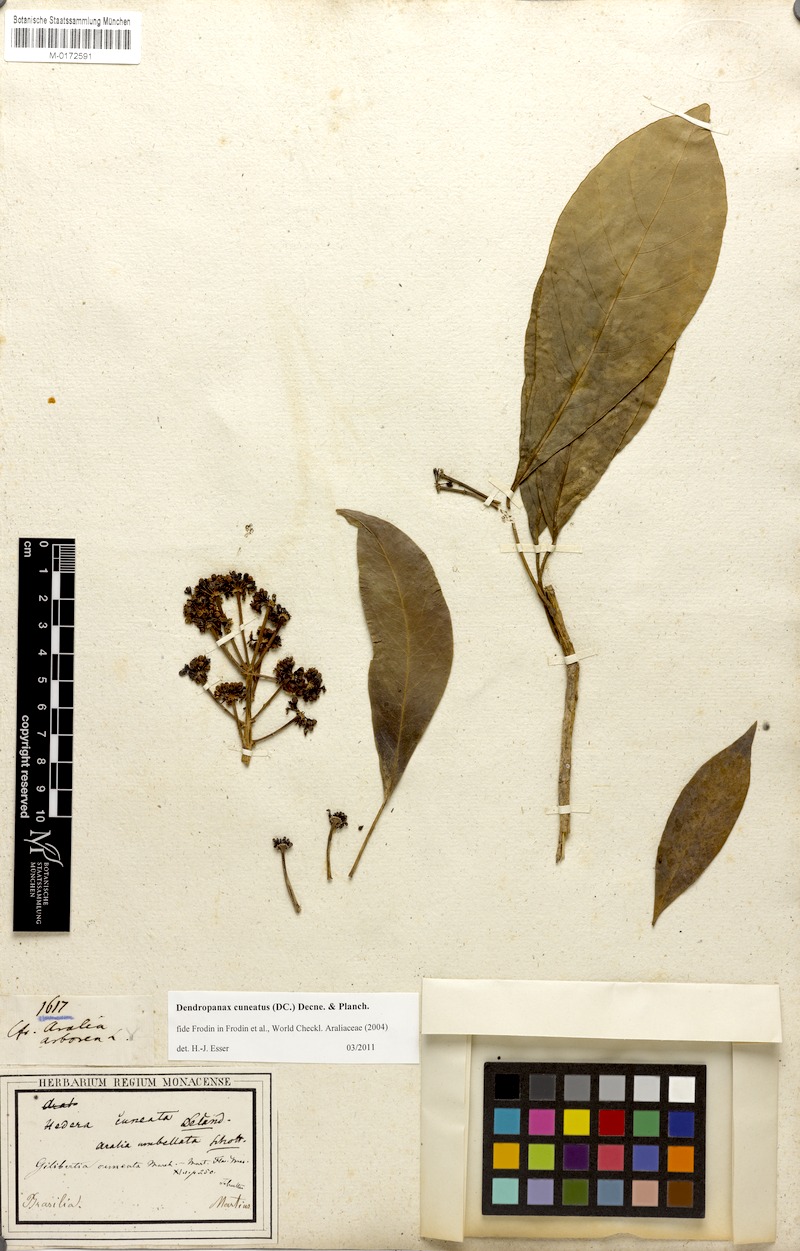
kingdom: Plantae
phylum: Tracheophyta
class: Magnoliopsida
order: Apiales
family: Araliaceae
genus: Dendropanax
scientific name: Dendropanax cuneatus
